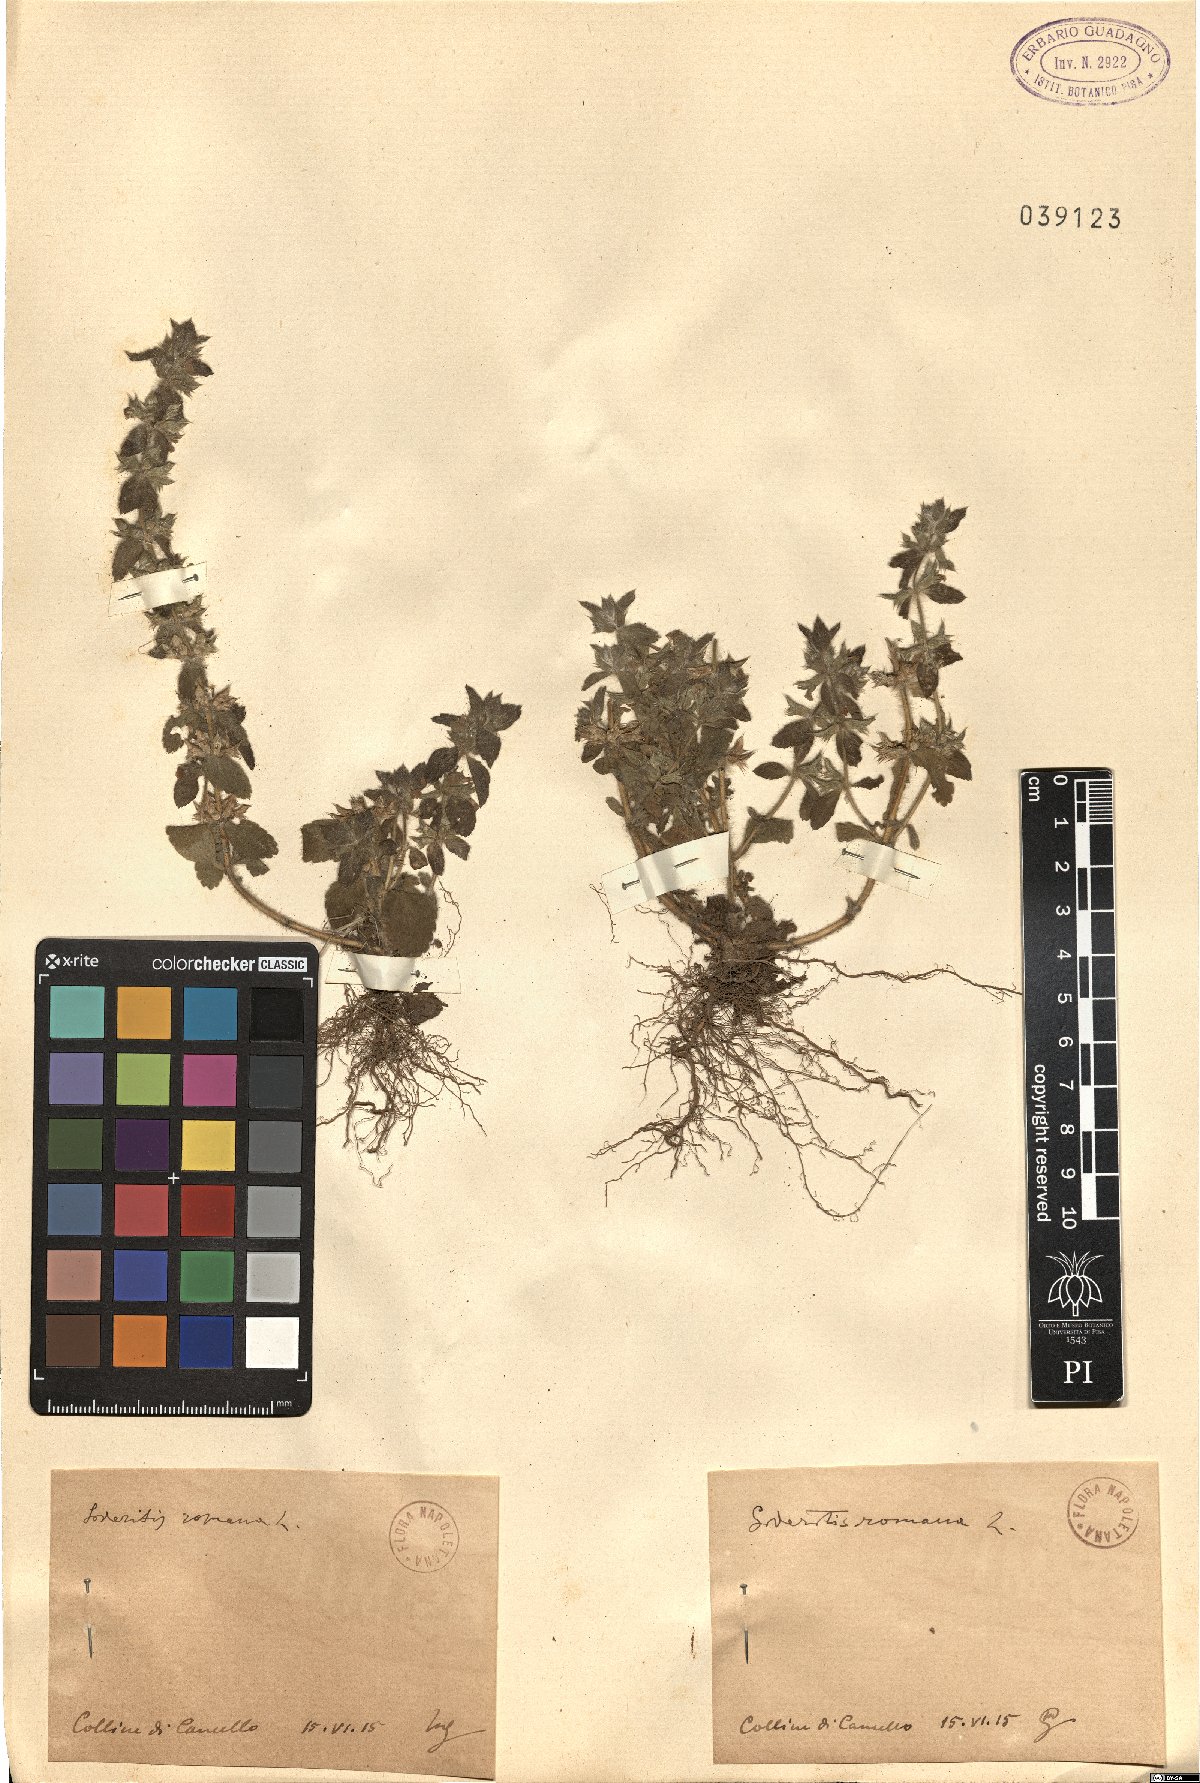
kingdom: Plantae
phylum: Tracheophyta
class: Magnoliopsida
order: Lamiales
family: Lamiaceae
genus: Sideritis
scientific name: Sideritis romana
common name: Simplebeak ironwort
